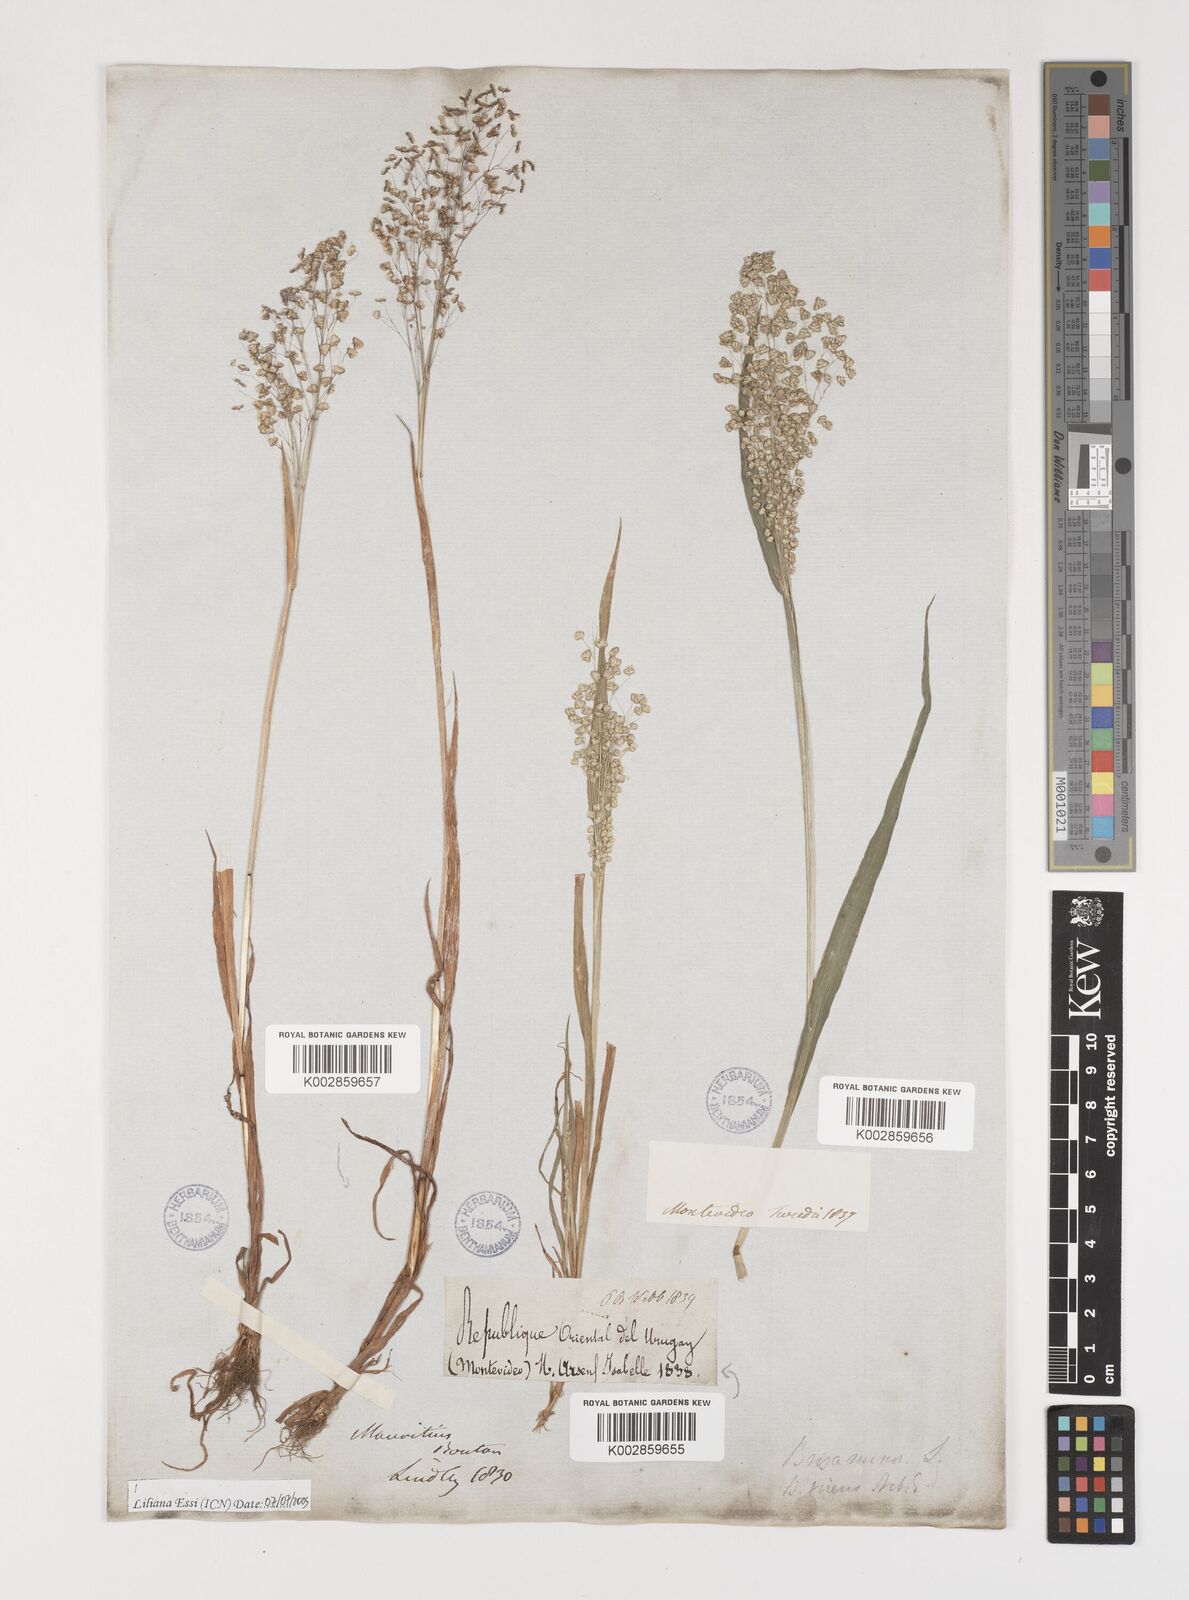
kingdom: Plantae
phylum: Tracheophyta
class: Liliopsida
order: Poales
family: Poaceae
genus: Briza
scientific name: Briza minor
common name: Lesser quaking-grass
